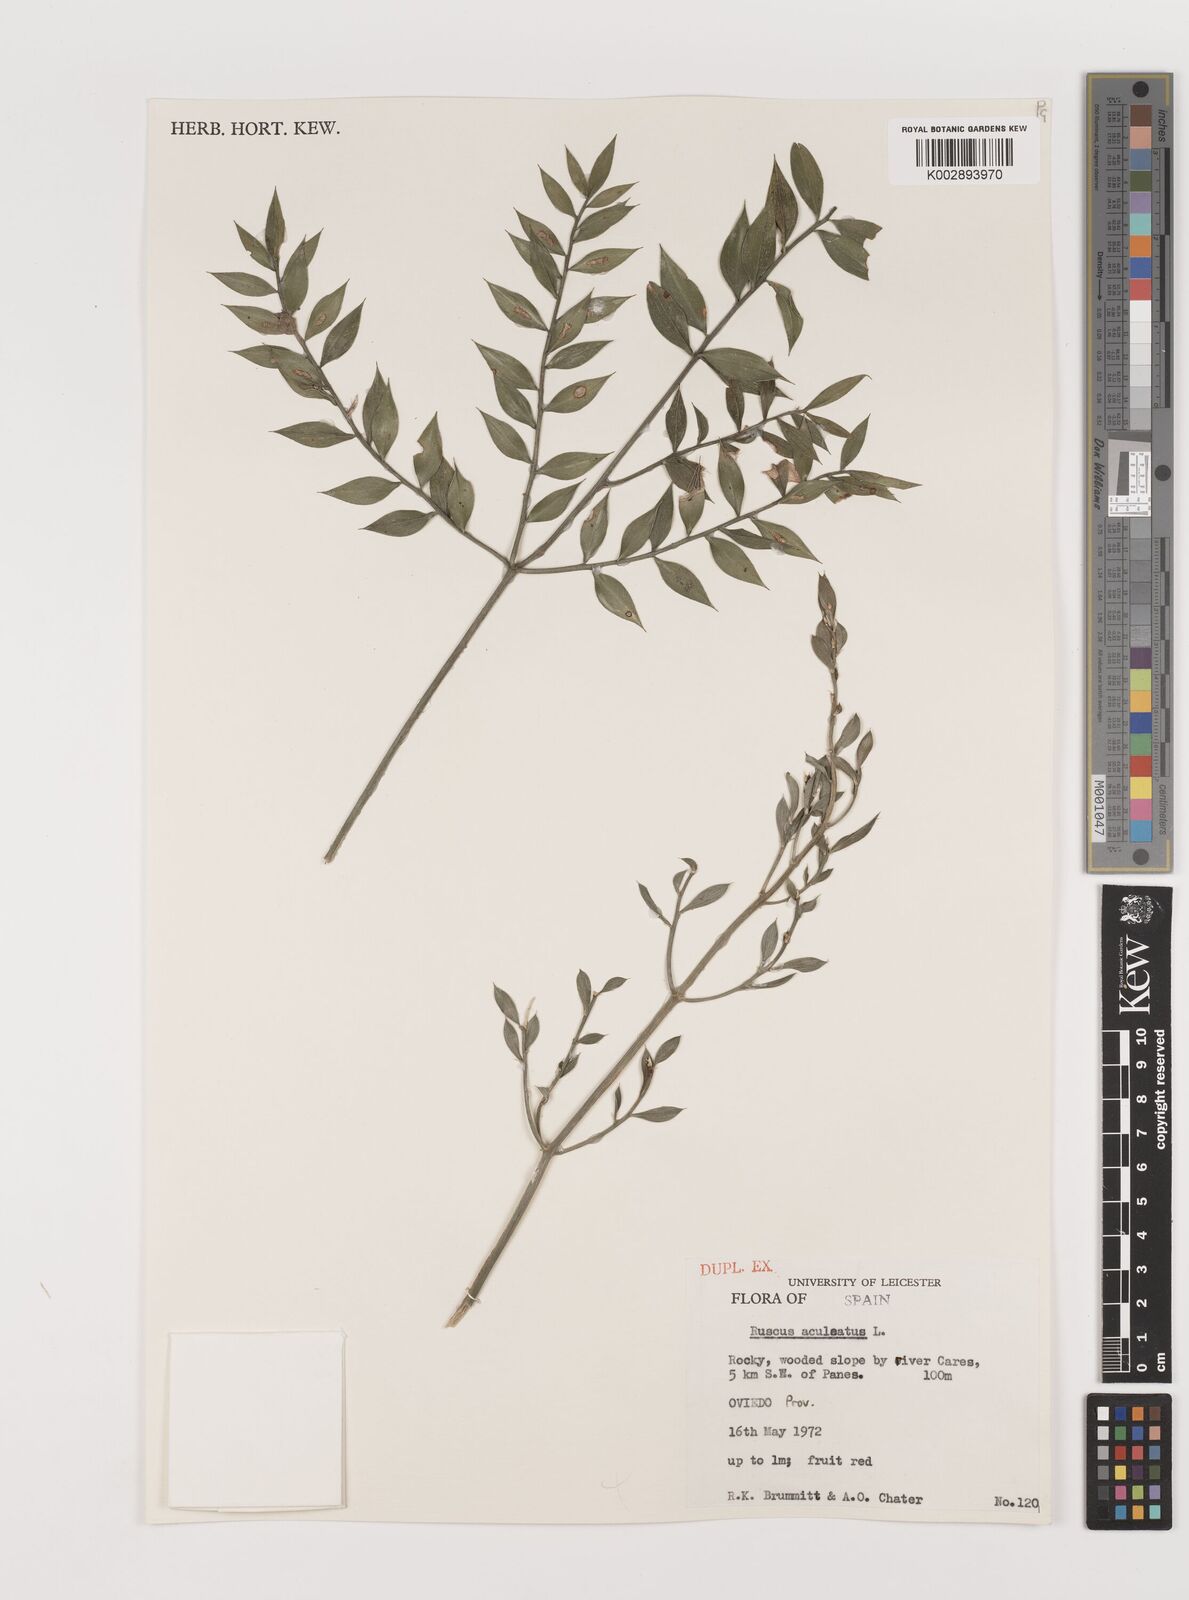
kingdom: Plantae
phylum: Tracheophyta
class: Liliopsida
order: Asparagales
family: Asparagaceae
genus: Ruscus
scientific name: Ruscus aculeatus
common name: Butcher's-broom
